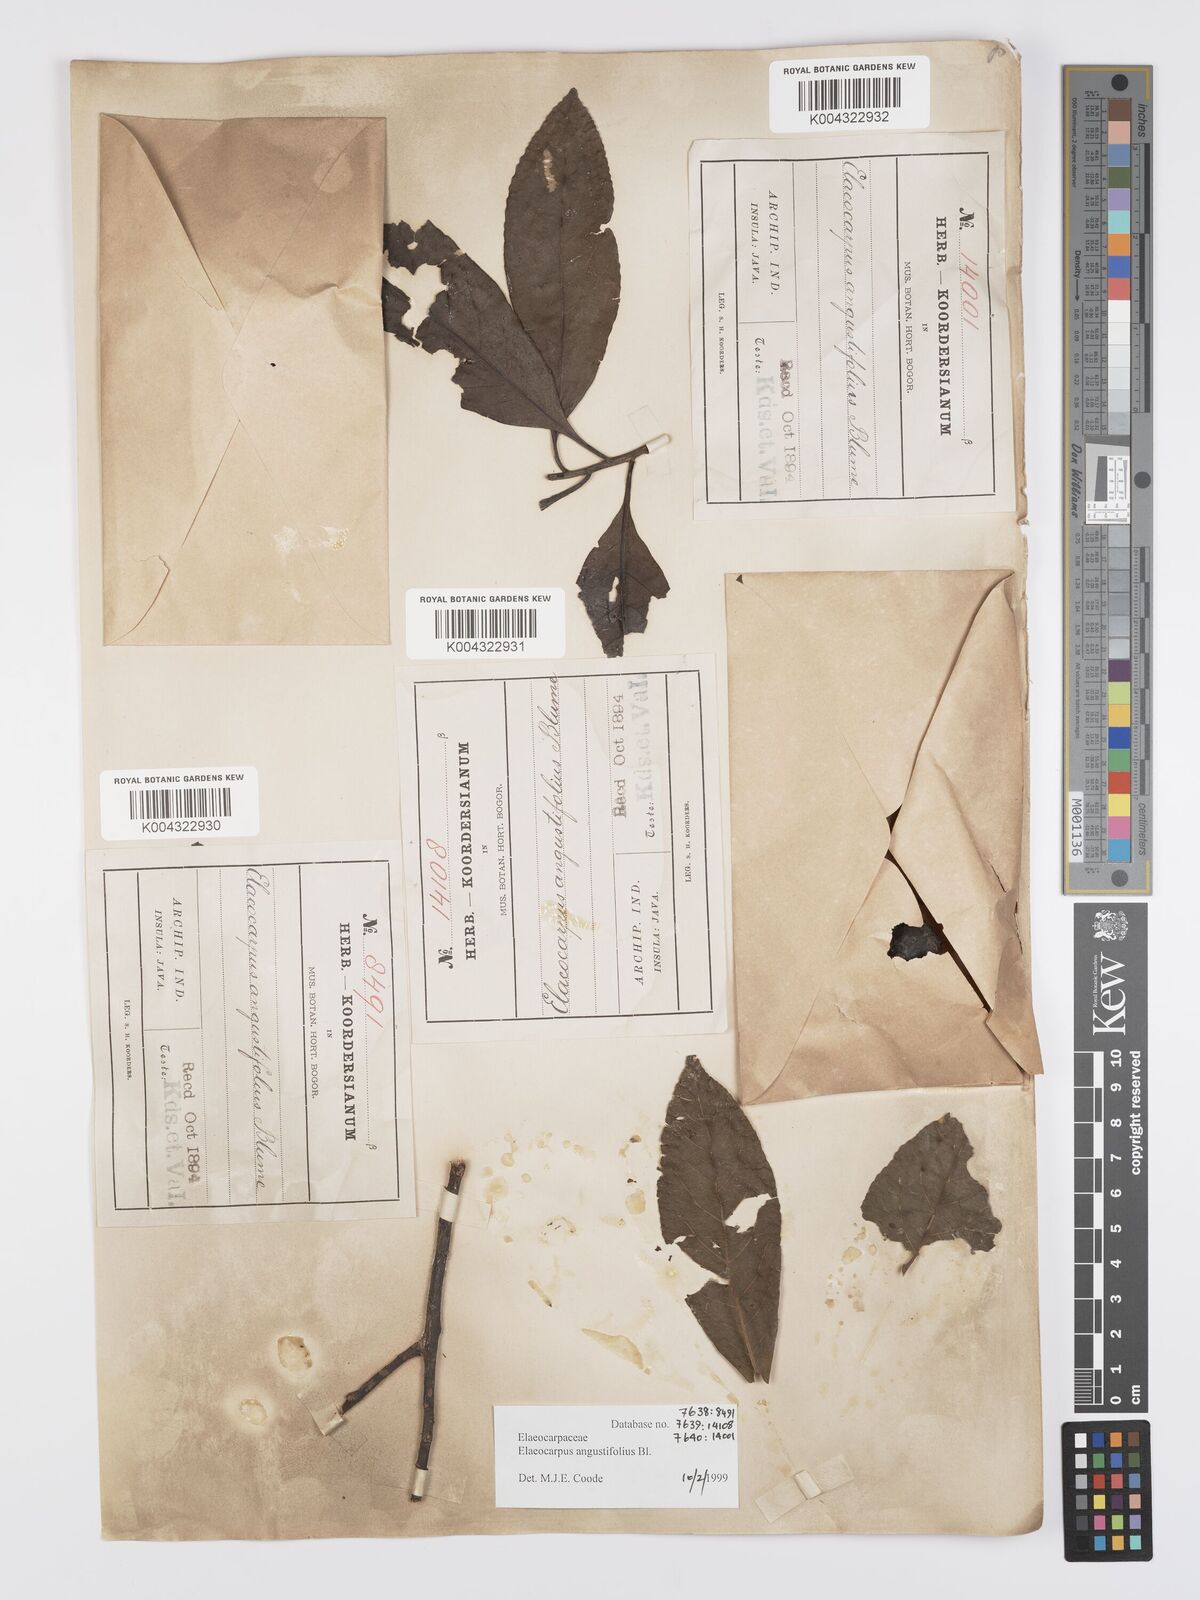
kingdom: Plantae
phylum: Tracheophyta
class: Magnoliopsida
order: Oxalidales
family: Elaeocarpaceae
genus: Elaeocarpus
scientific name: Elaeocarpus
